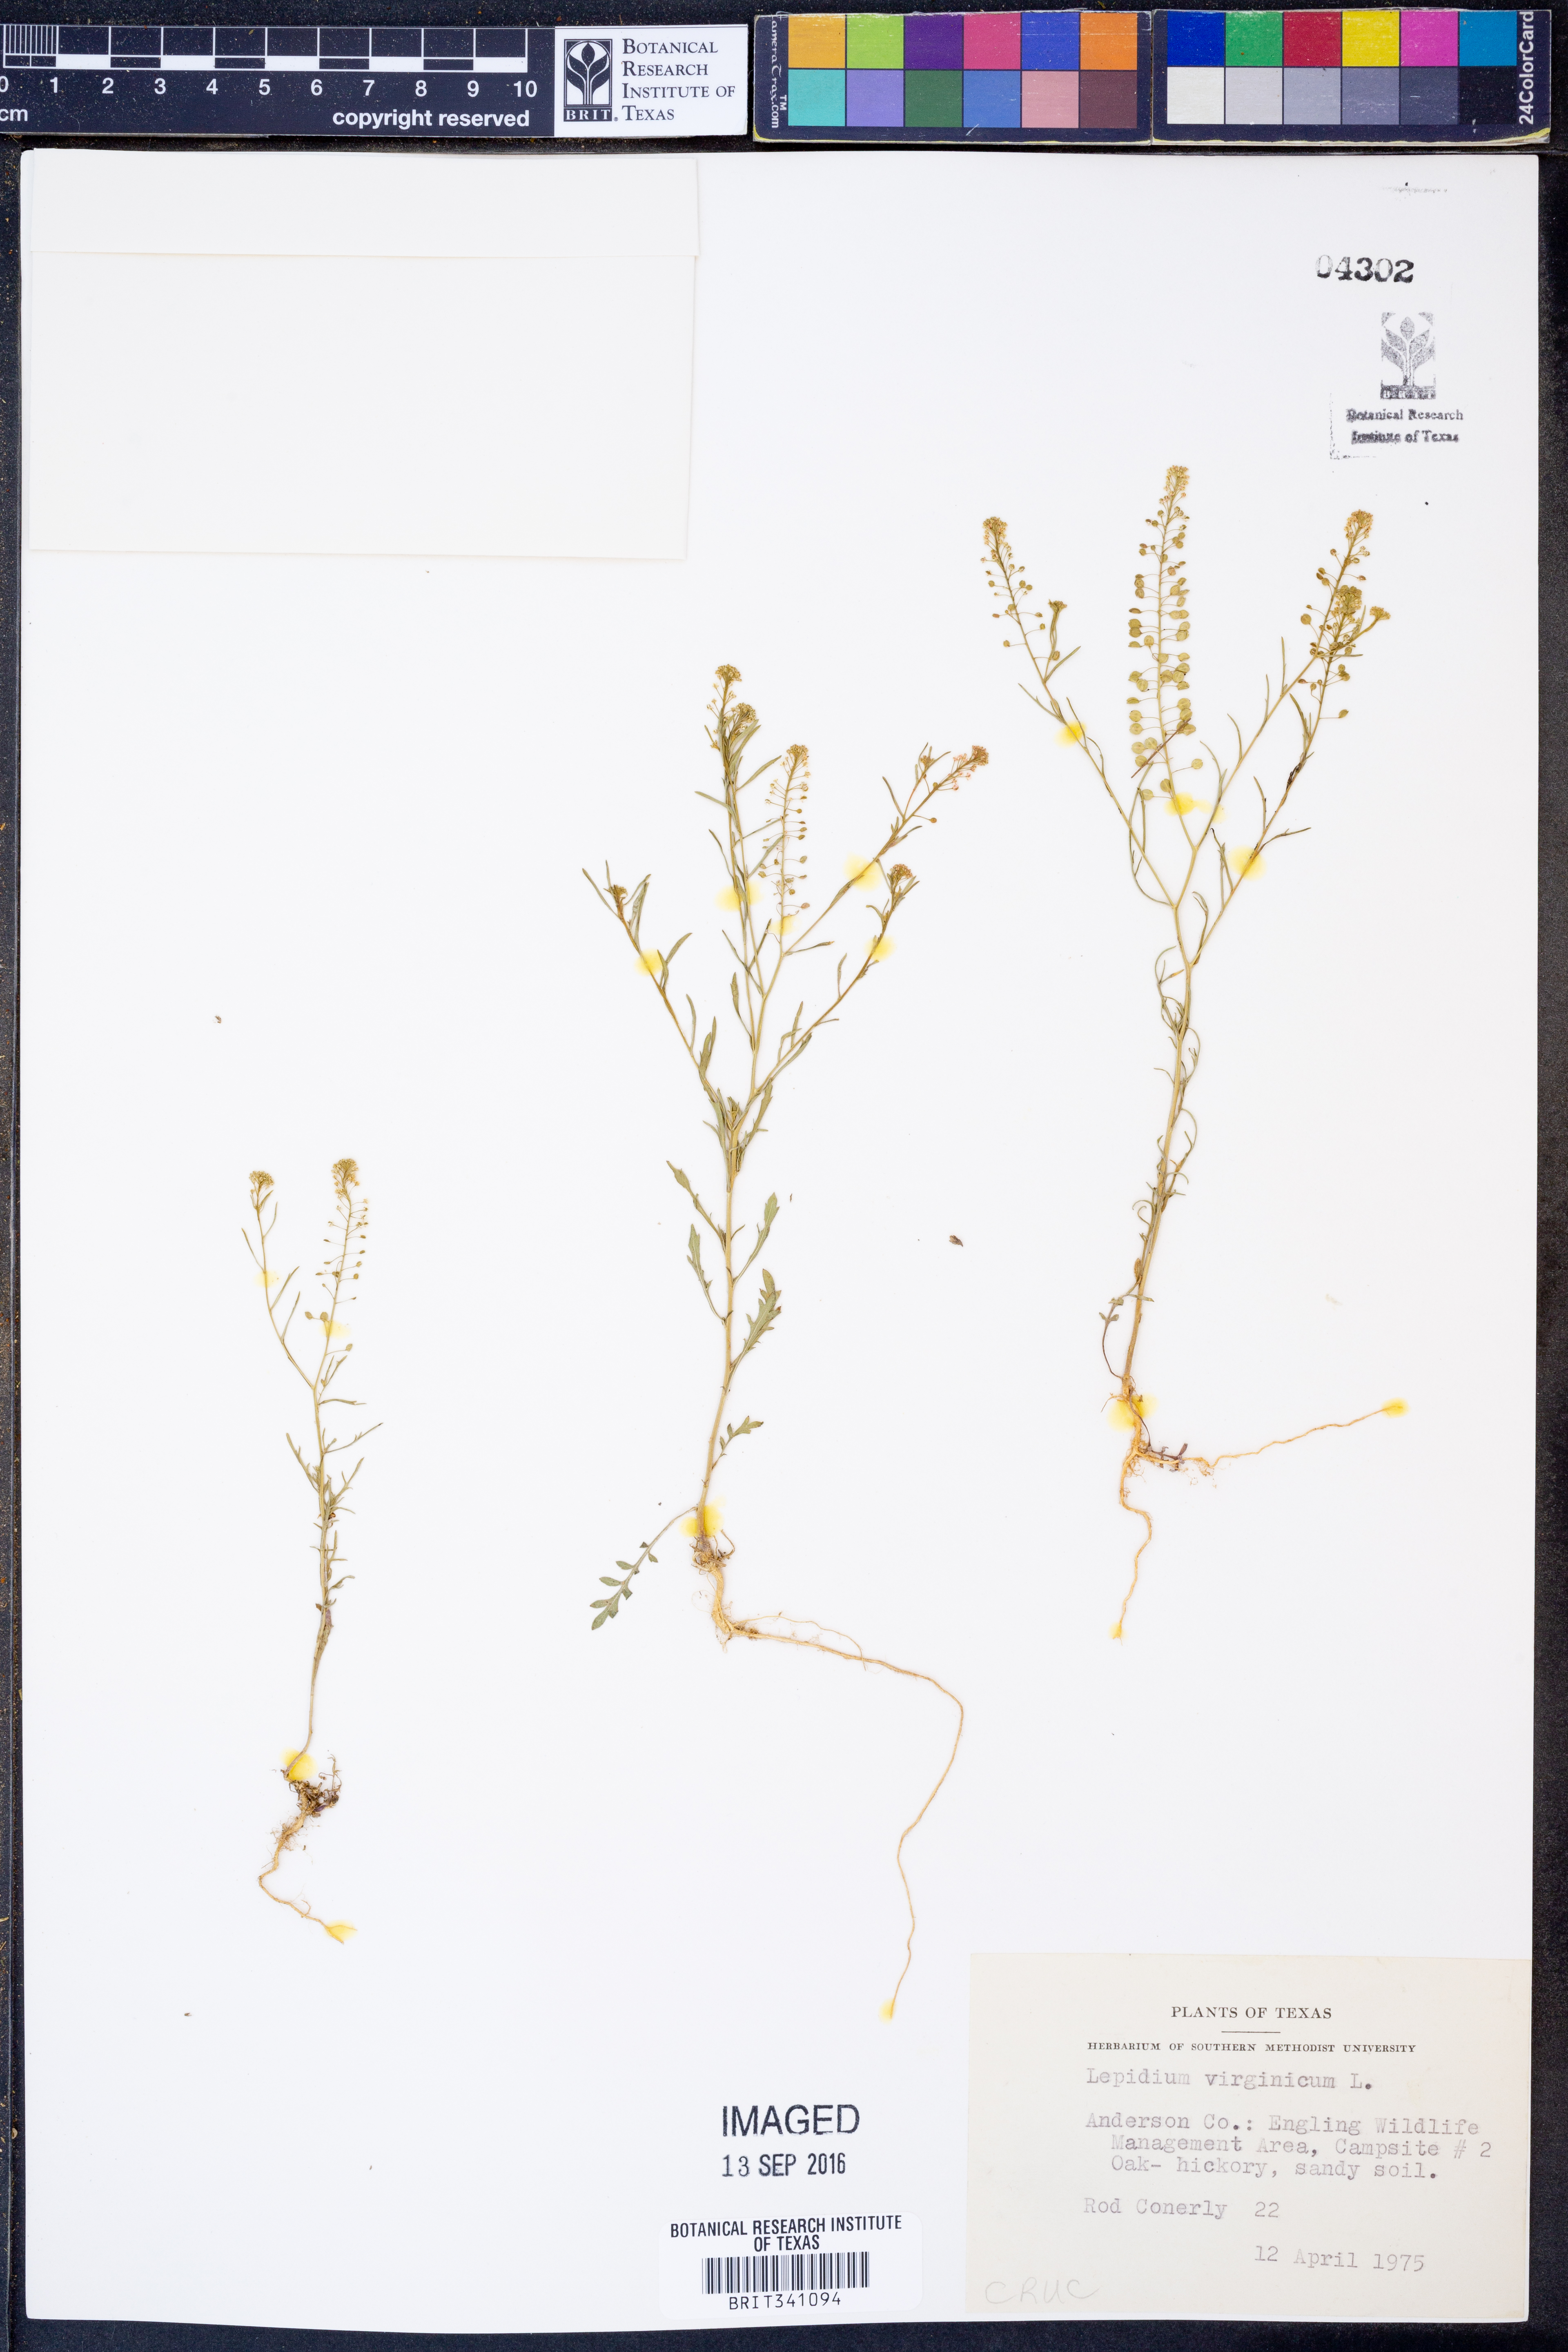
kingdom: Plantae
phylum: Tracheophyta
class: Magnoliopsida
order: Brassicales
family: Brassicaceae
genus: Lepidium
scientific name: Lepidium virginicum
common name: Least pepperwort
